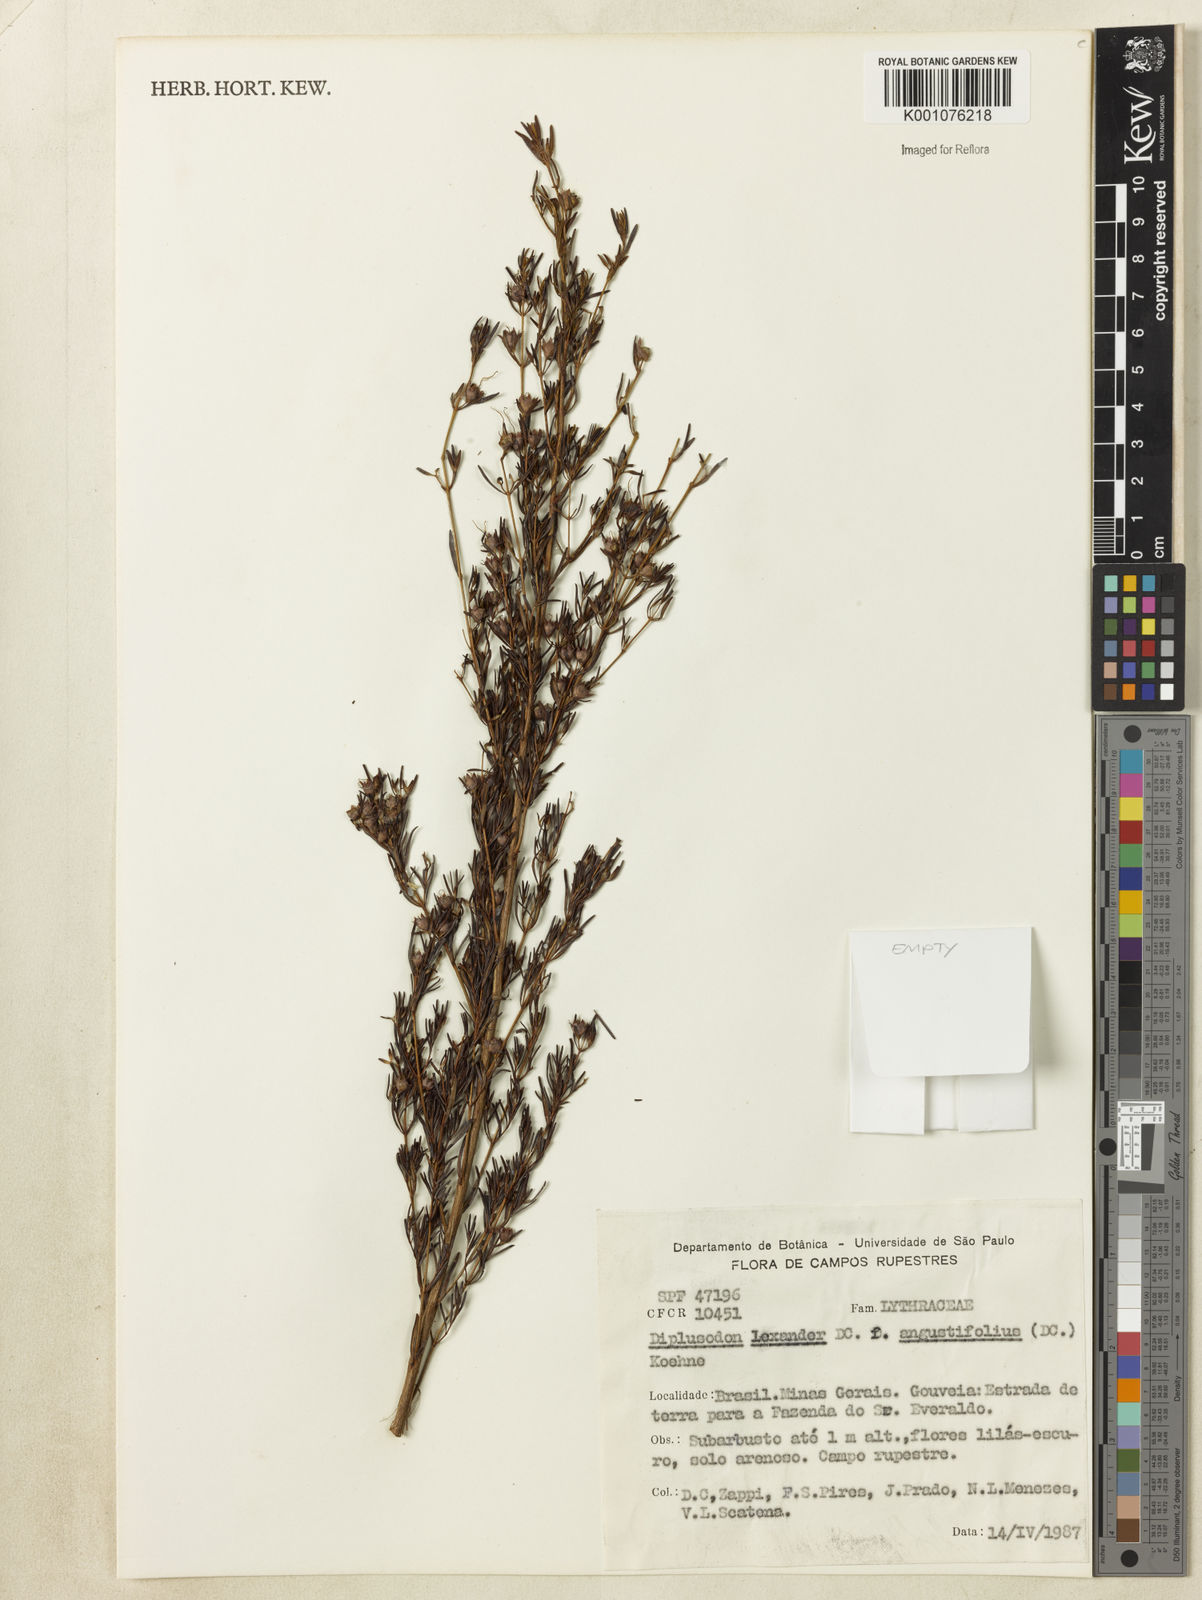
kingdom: Plantae
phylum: Tracheophyta
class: Magnoliopsida
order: Myrtales
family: Lythraceae
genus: Diplusodon
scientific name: Diplusodon hexander
